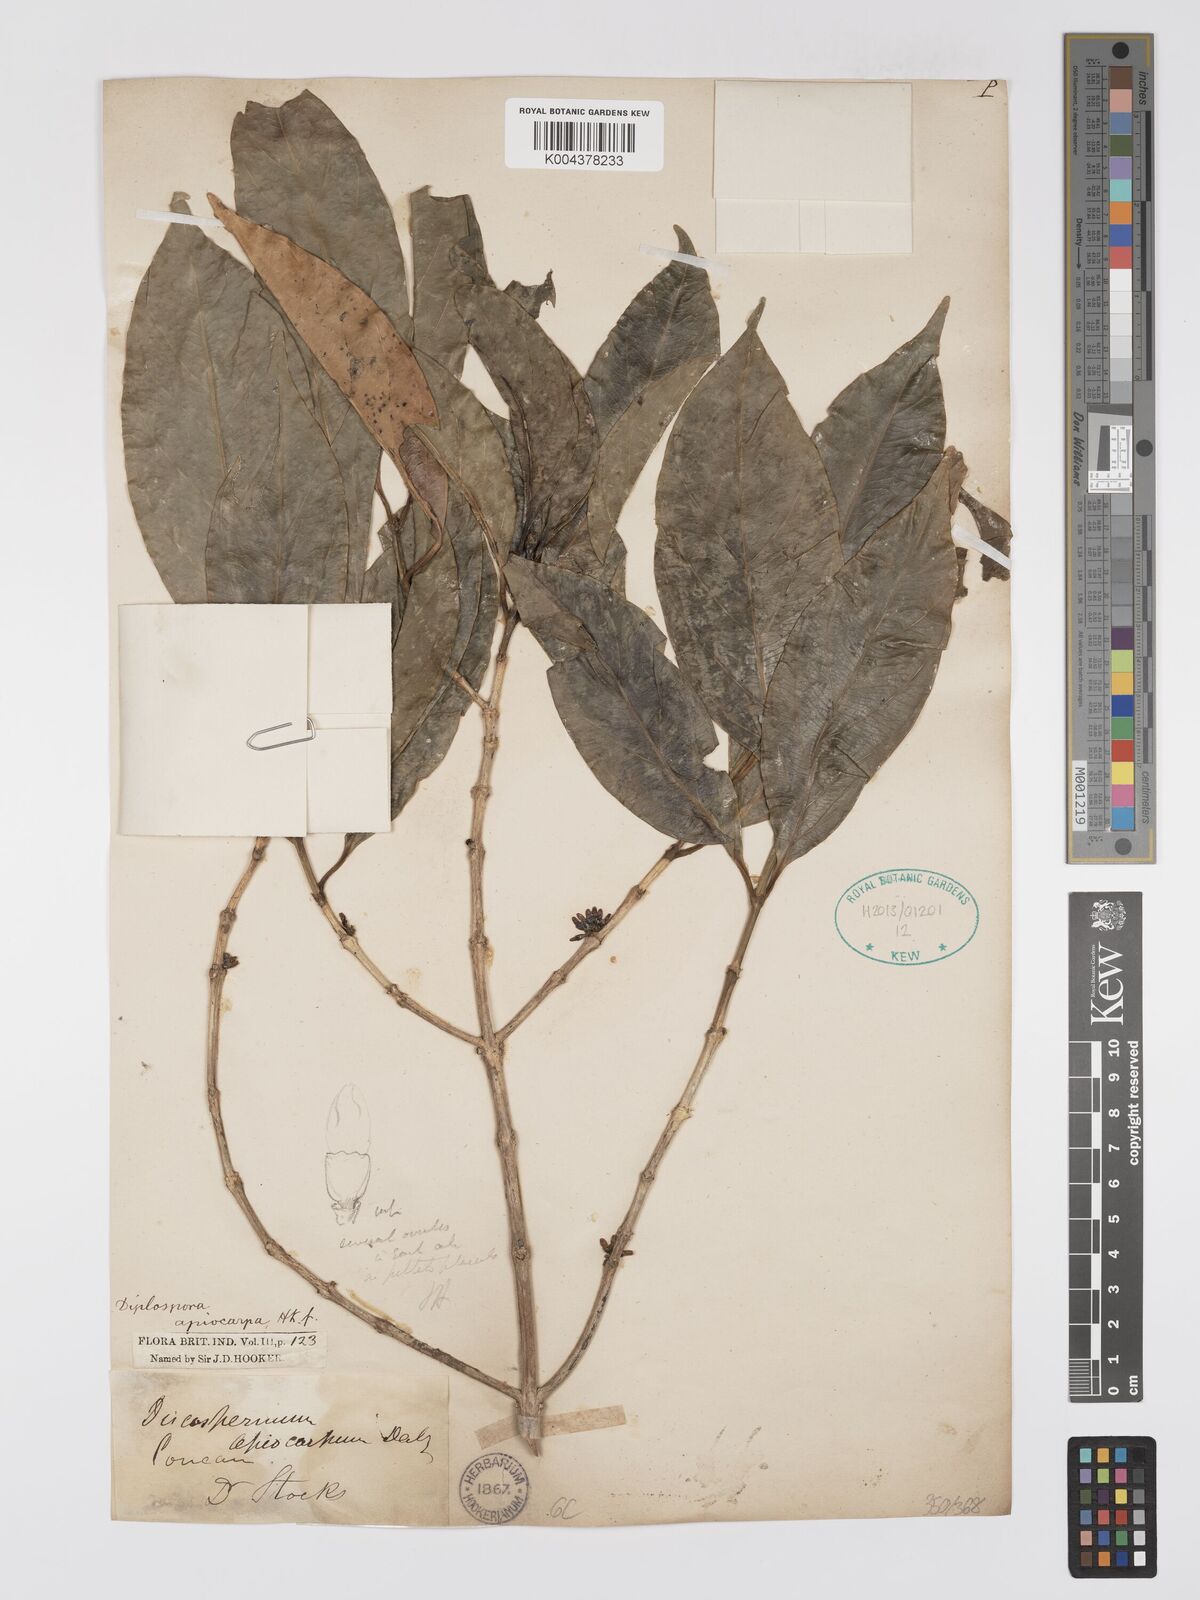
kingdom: Plantae
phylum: Tracheophyta
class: Magnoliopsida
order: Gentianales
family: Rubiaceae
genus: Discospermum
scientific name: Discospermum apiocarpum
